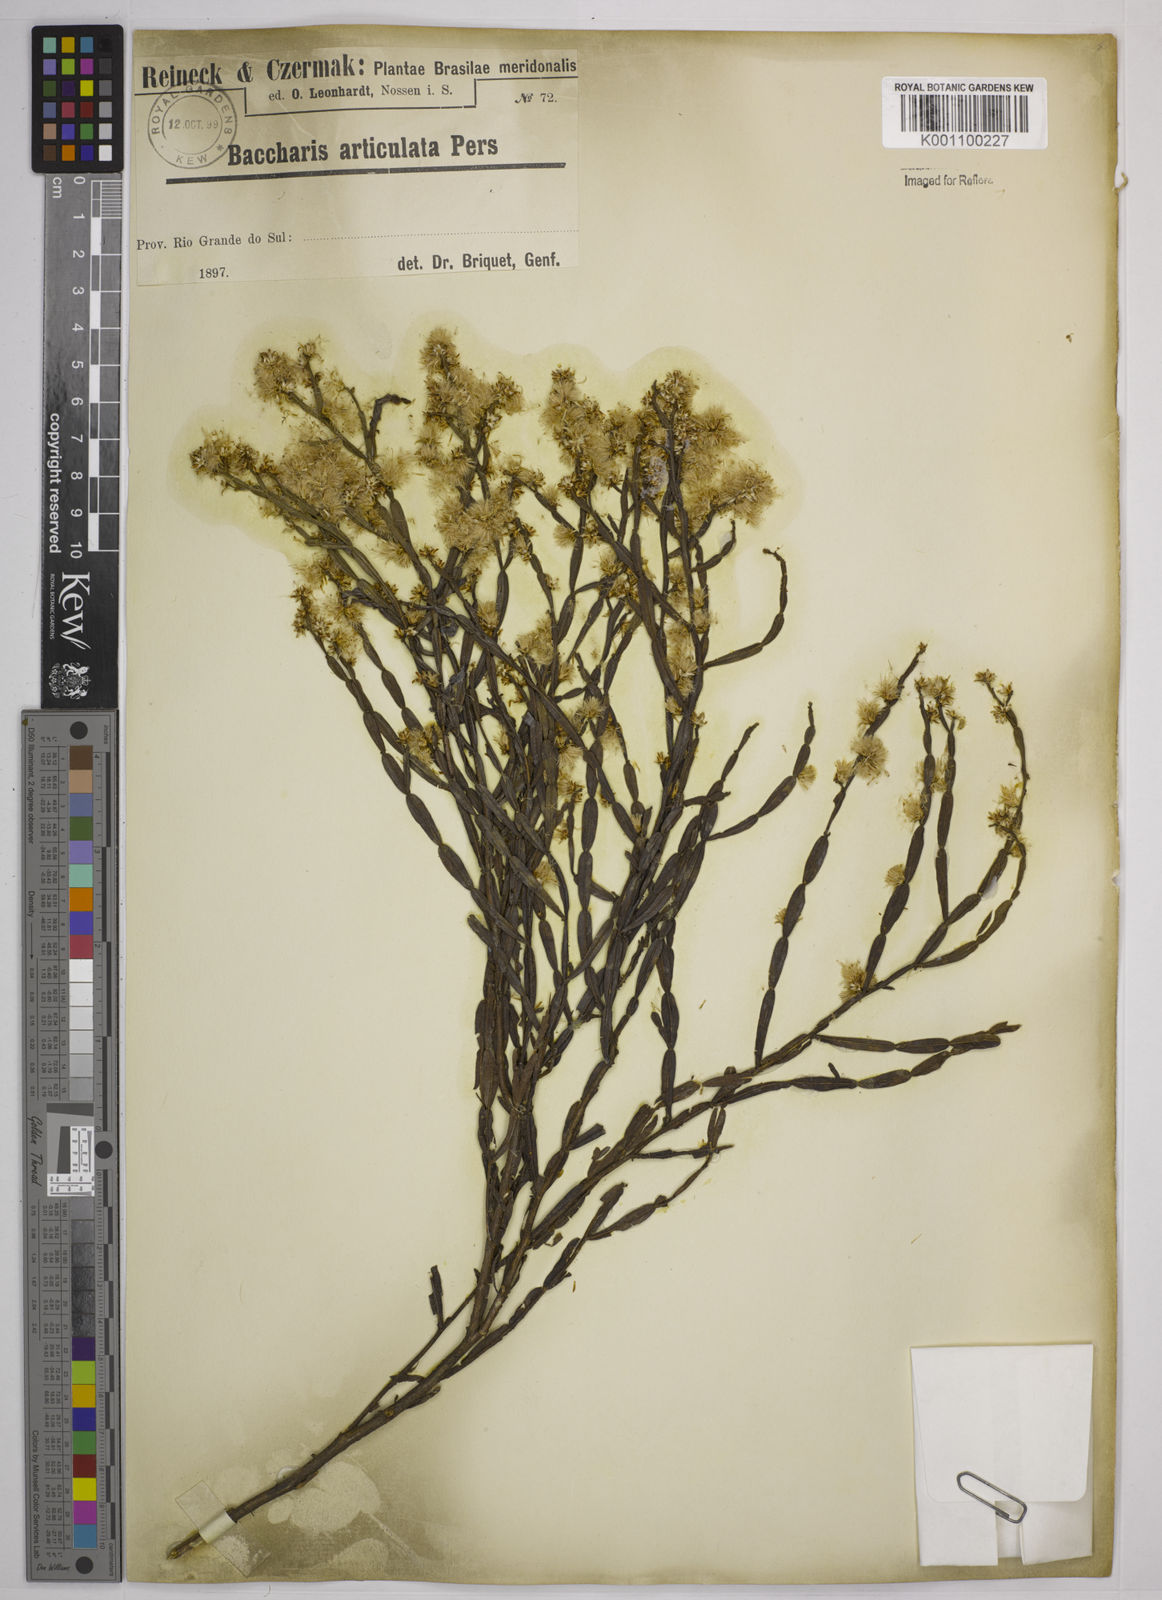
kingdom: Plantae
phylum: Tracheophyta
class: Magnoliopsida
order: Asterales
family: Asteraceae
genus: Baccharis
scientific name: Baccharis
